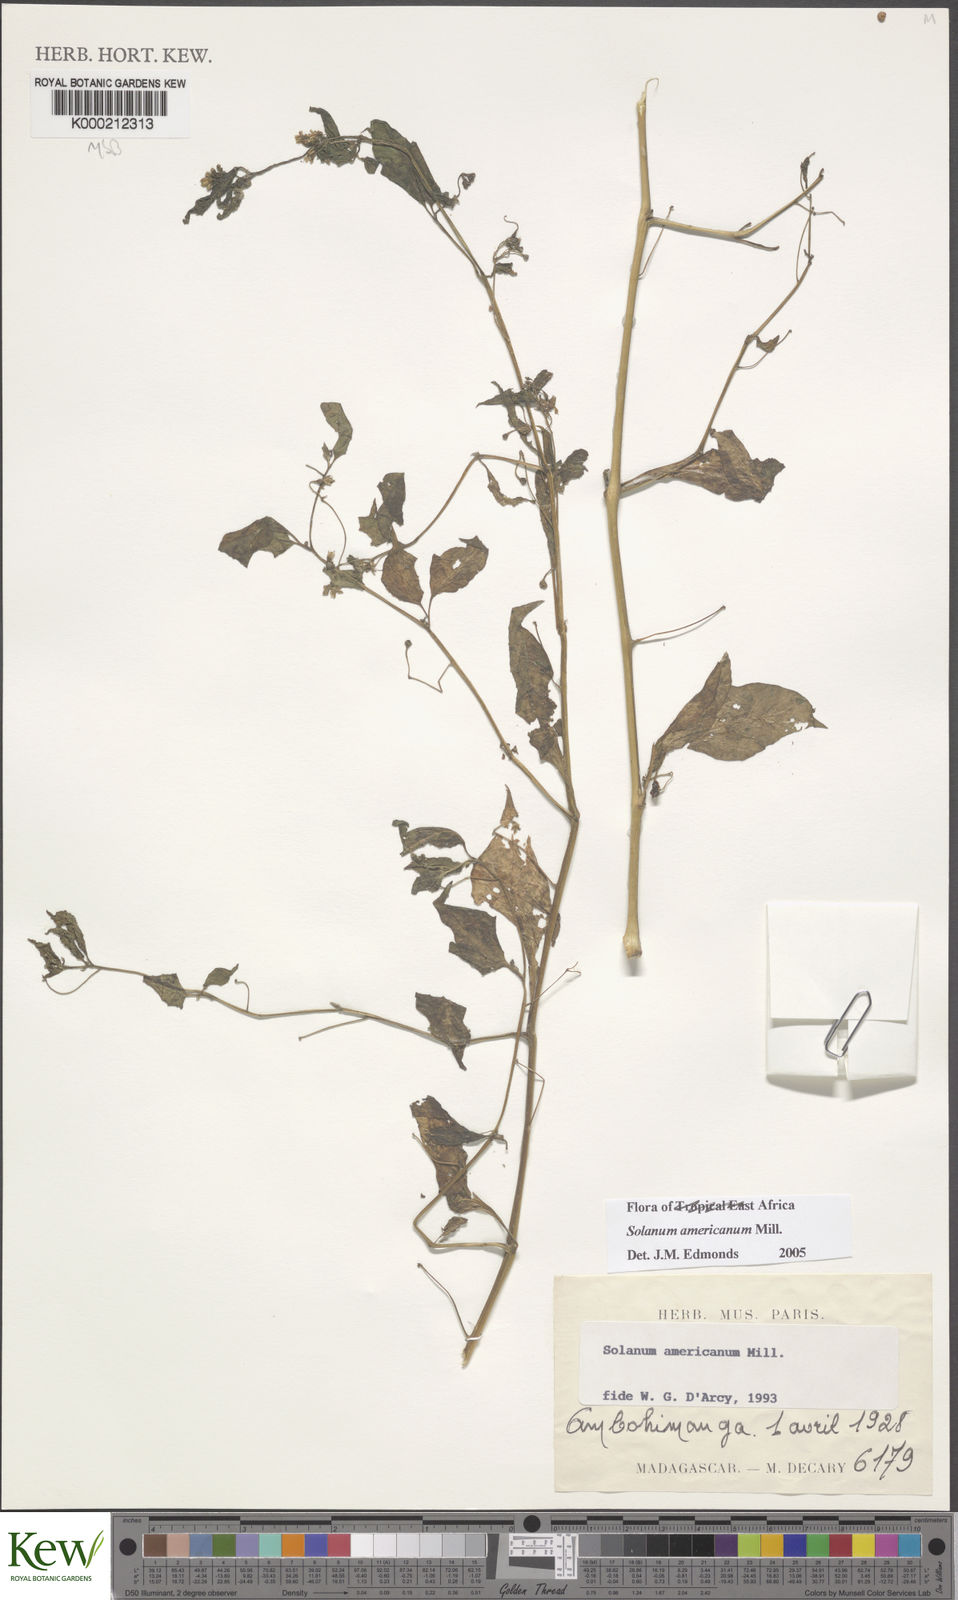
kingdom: Plantae
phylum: Tracheophyta
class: Magnoliopsida
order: Solanales
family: Solanaceae
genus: Solanum
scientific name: Solanum americanum
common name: American black nightshade
